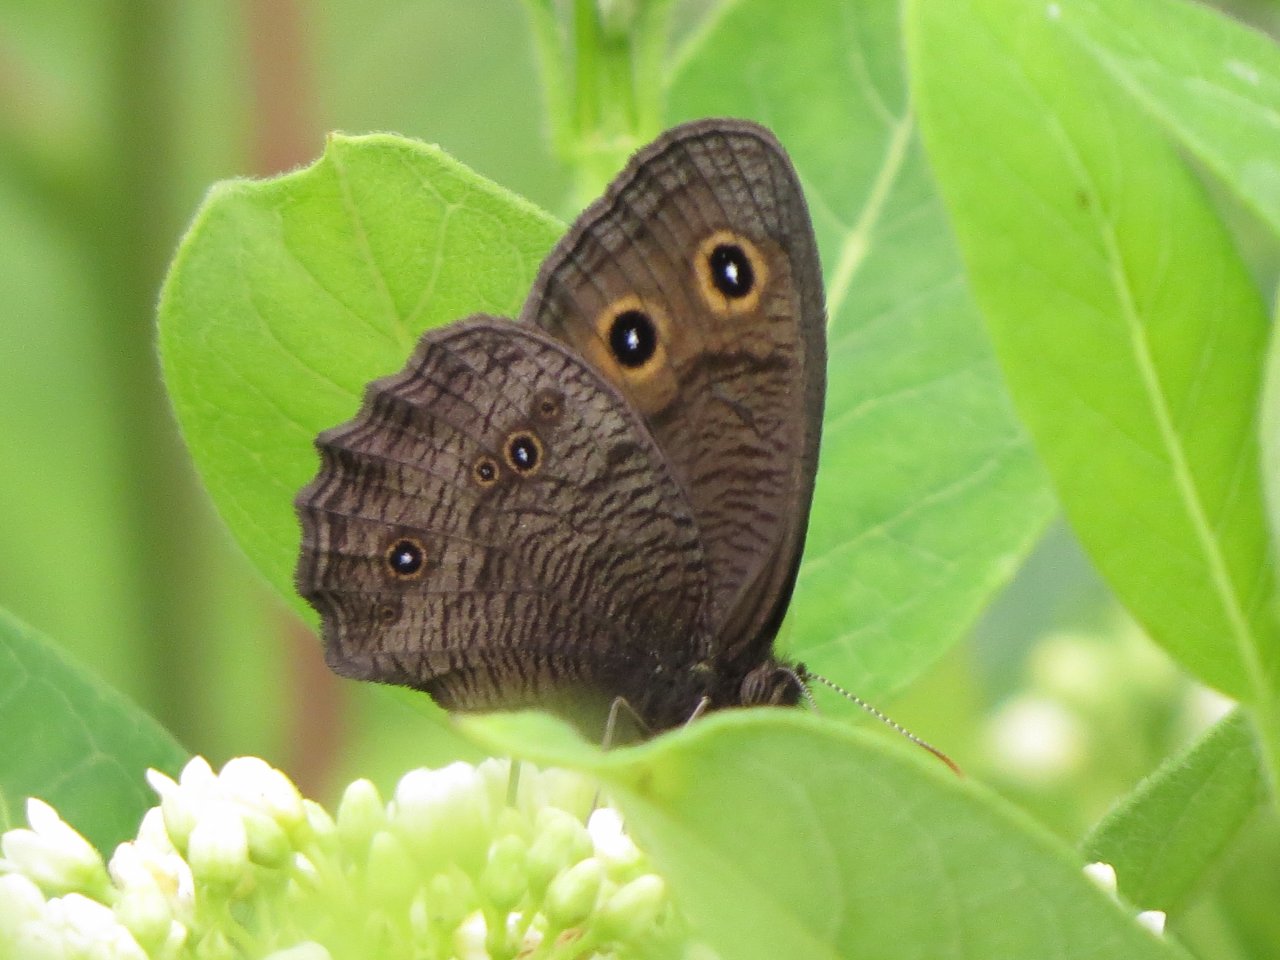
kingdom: Animalia
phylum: Arthropoda
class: Insecta
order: Lepidoptera
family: Nymphalidae
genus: Cercyonis
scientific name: Cercyonis pegala
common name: Common Wood-Nymph
